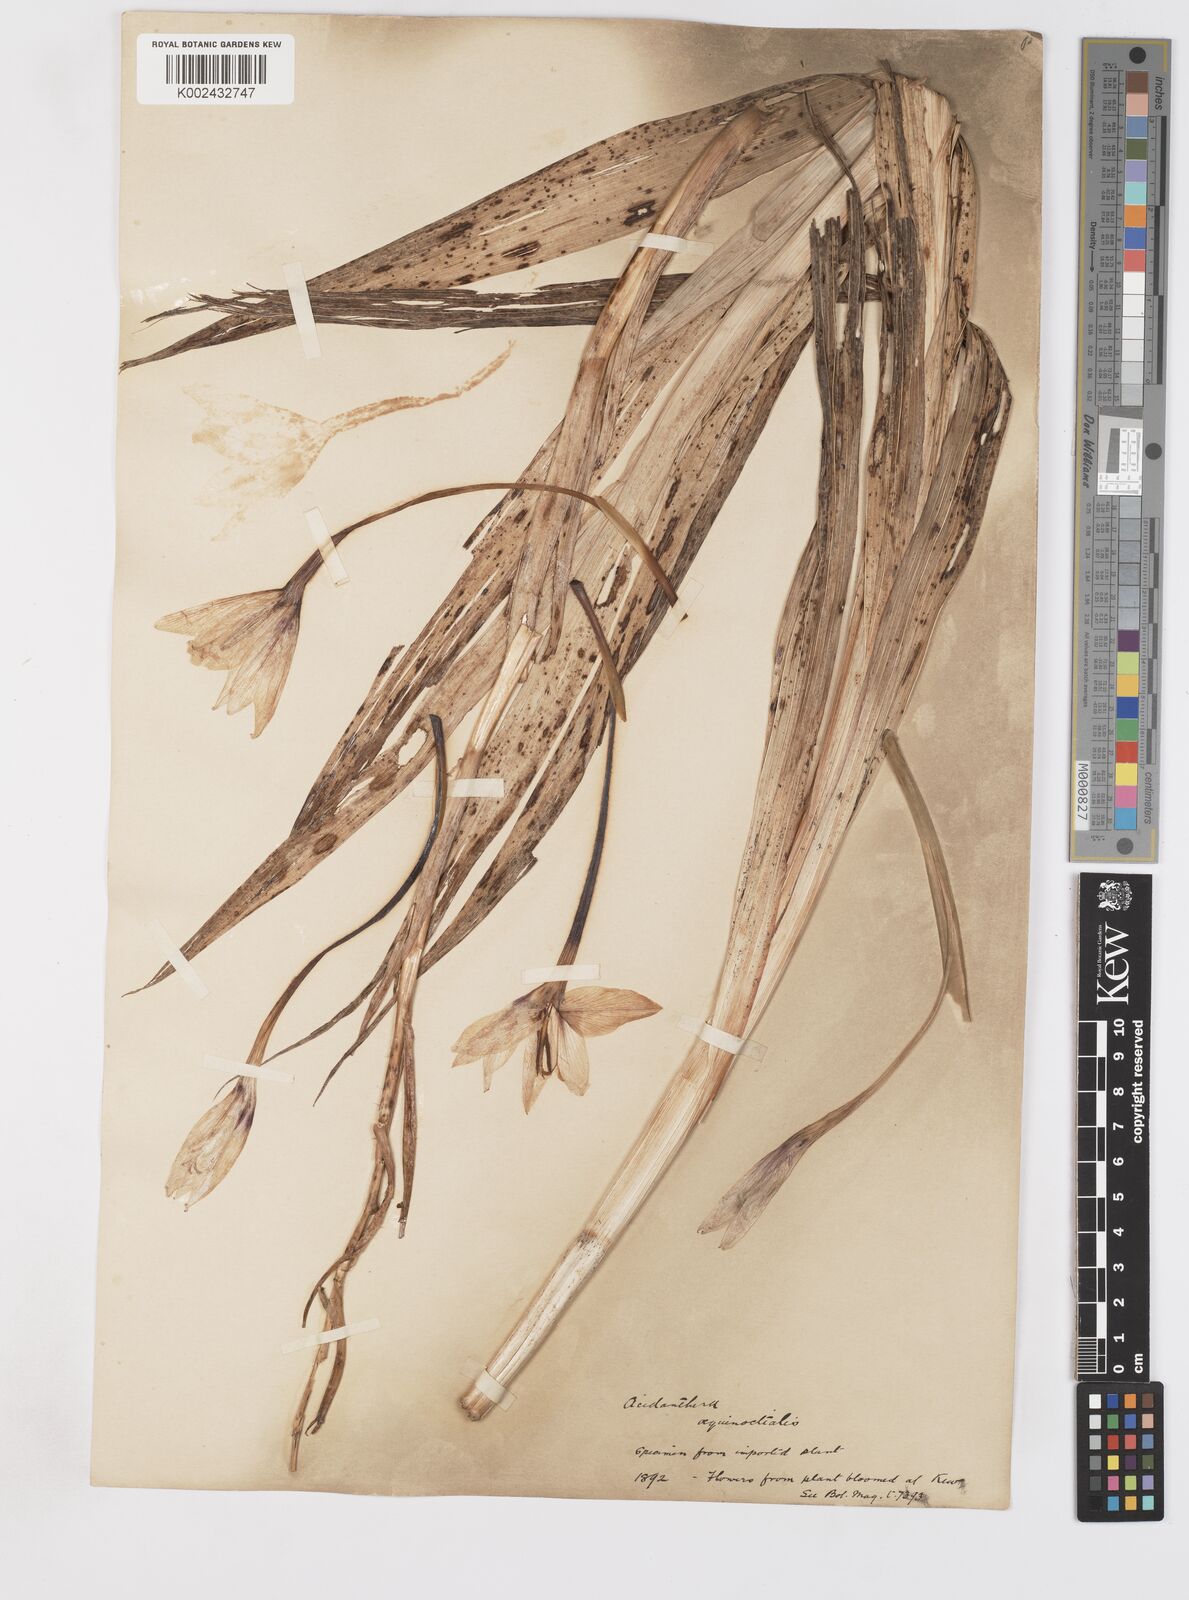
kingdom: Plantae
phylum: Tracheophyta
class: Liliopsida
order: Asparagales
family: Iridaceae
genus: Gladiolus
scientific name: Gladiolus aequinoctialis
